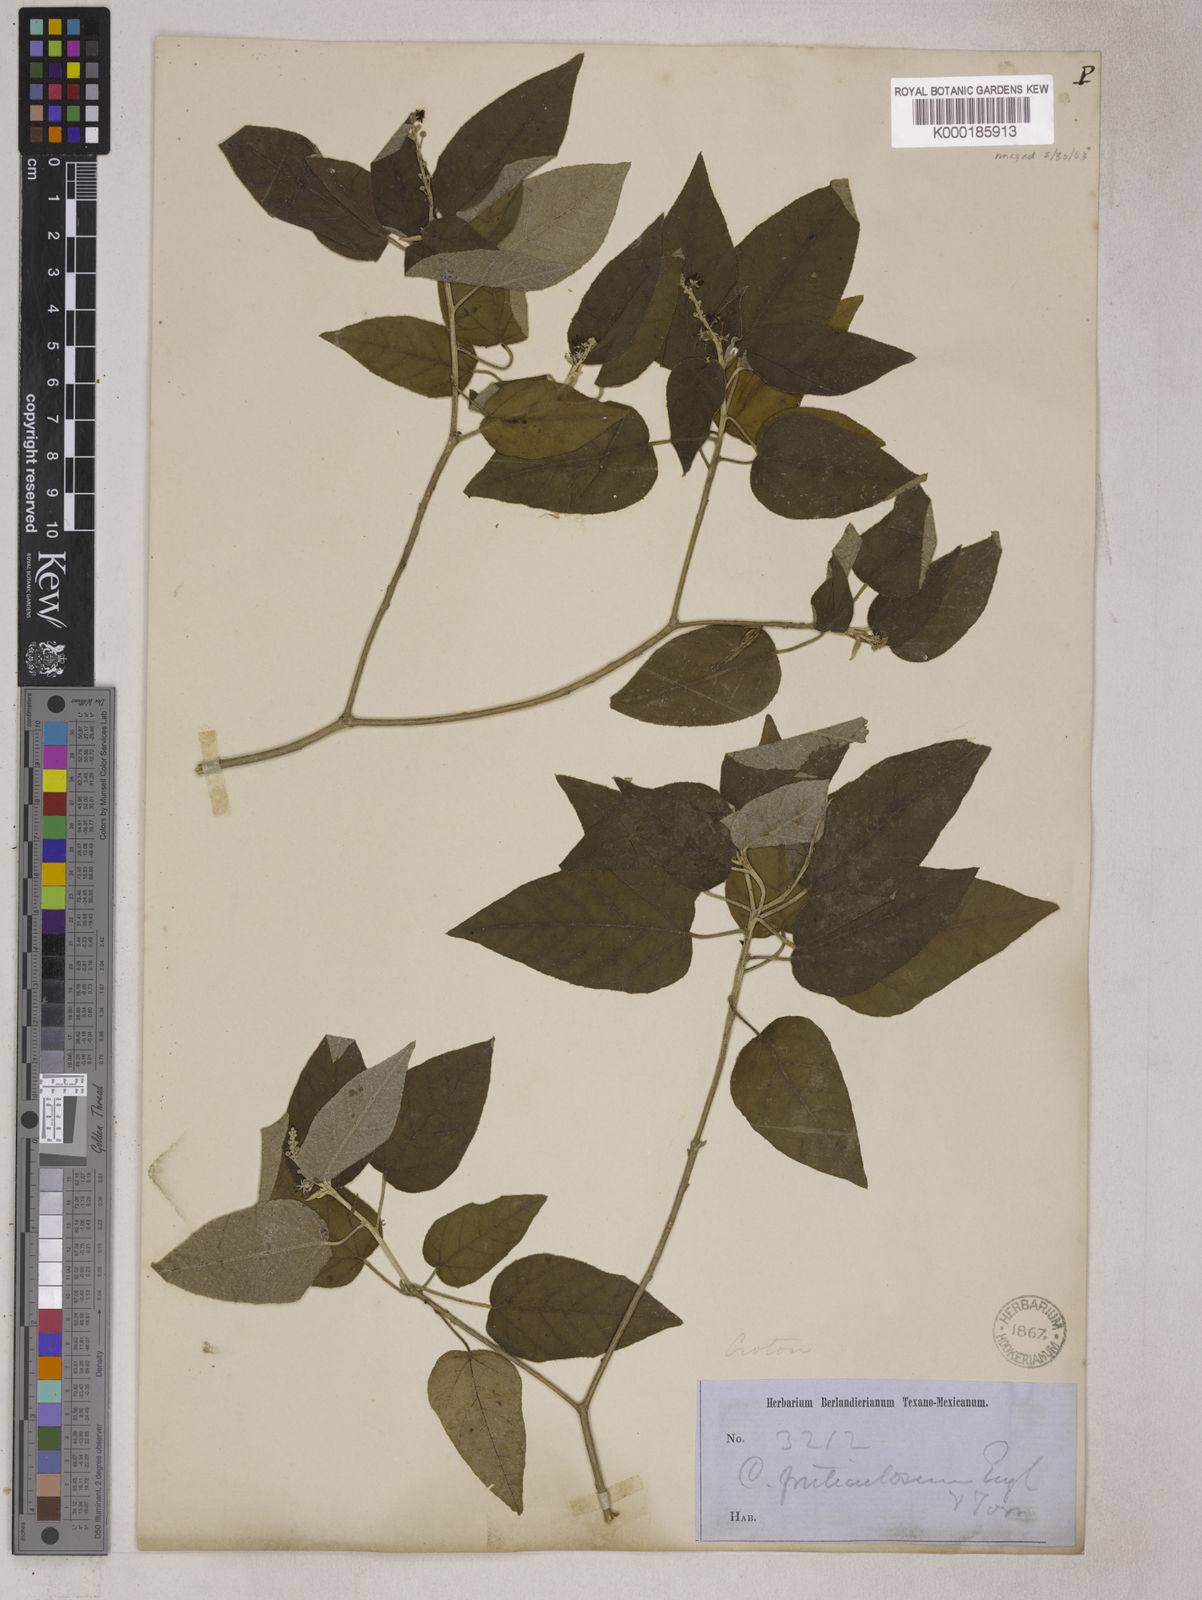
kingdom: Plantae
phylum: Tracheophyta
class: Magnoliopsida
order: Malpighiales
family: Euphorbiaceae
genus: Croton
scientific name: Croton fruticulosus
